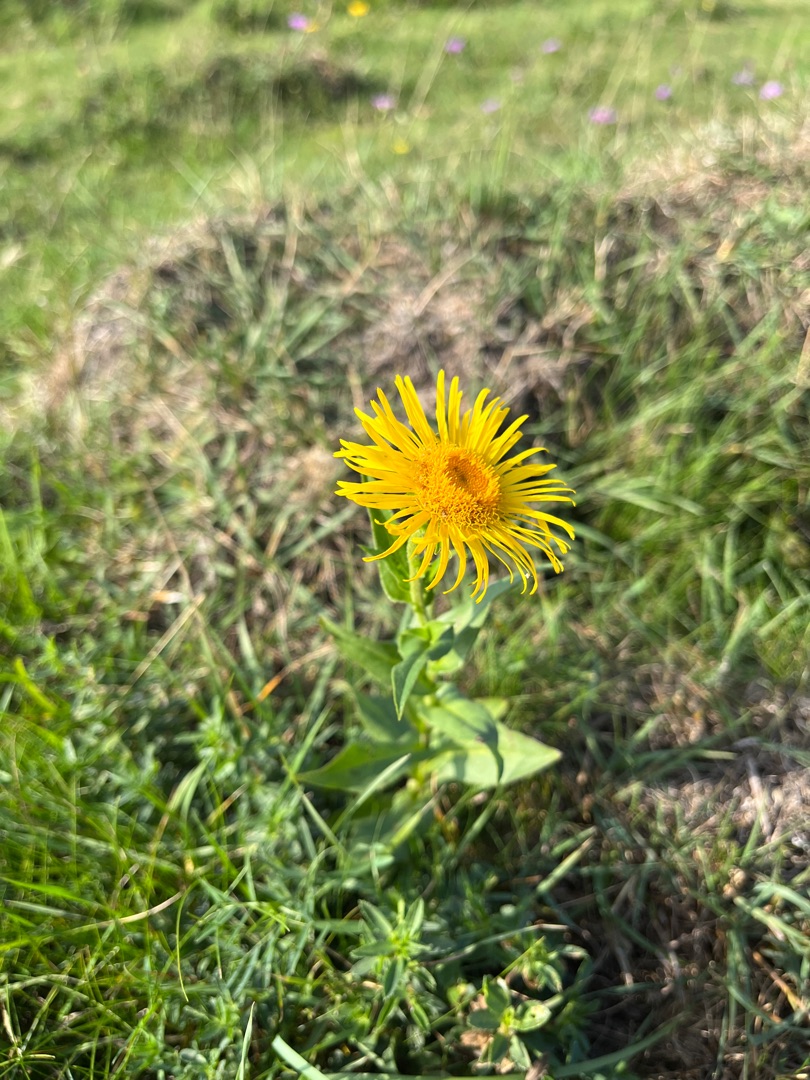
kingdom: Plantae
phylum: Tracheophyta
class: Magnoliopsida
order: Asterales
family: Asteraceae
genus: Pentanema
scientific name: Pentanema britannicum
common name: Soløje-alant
